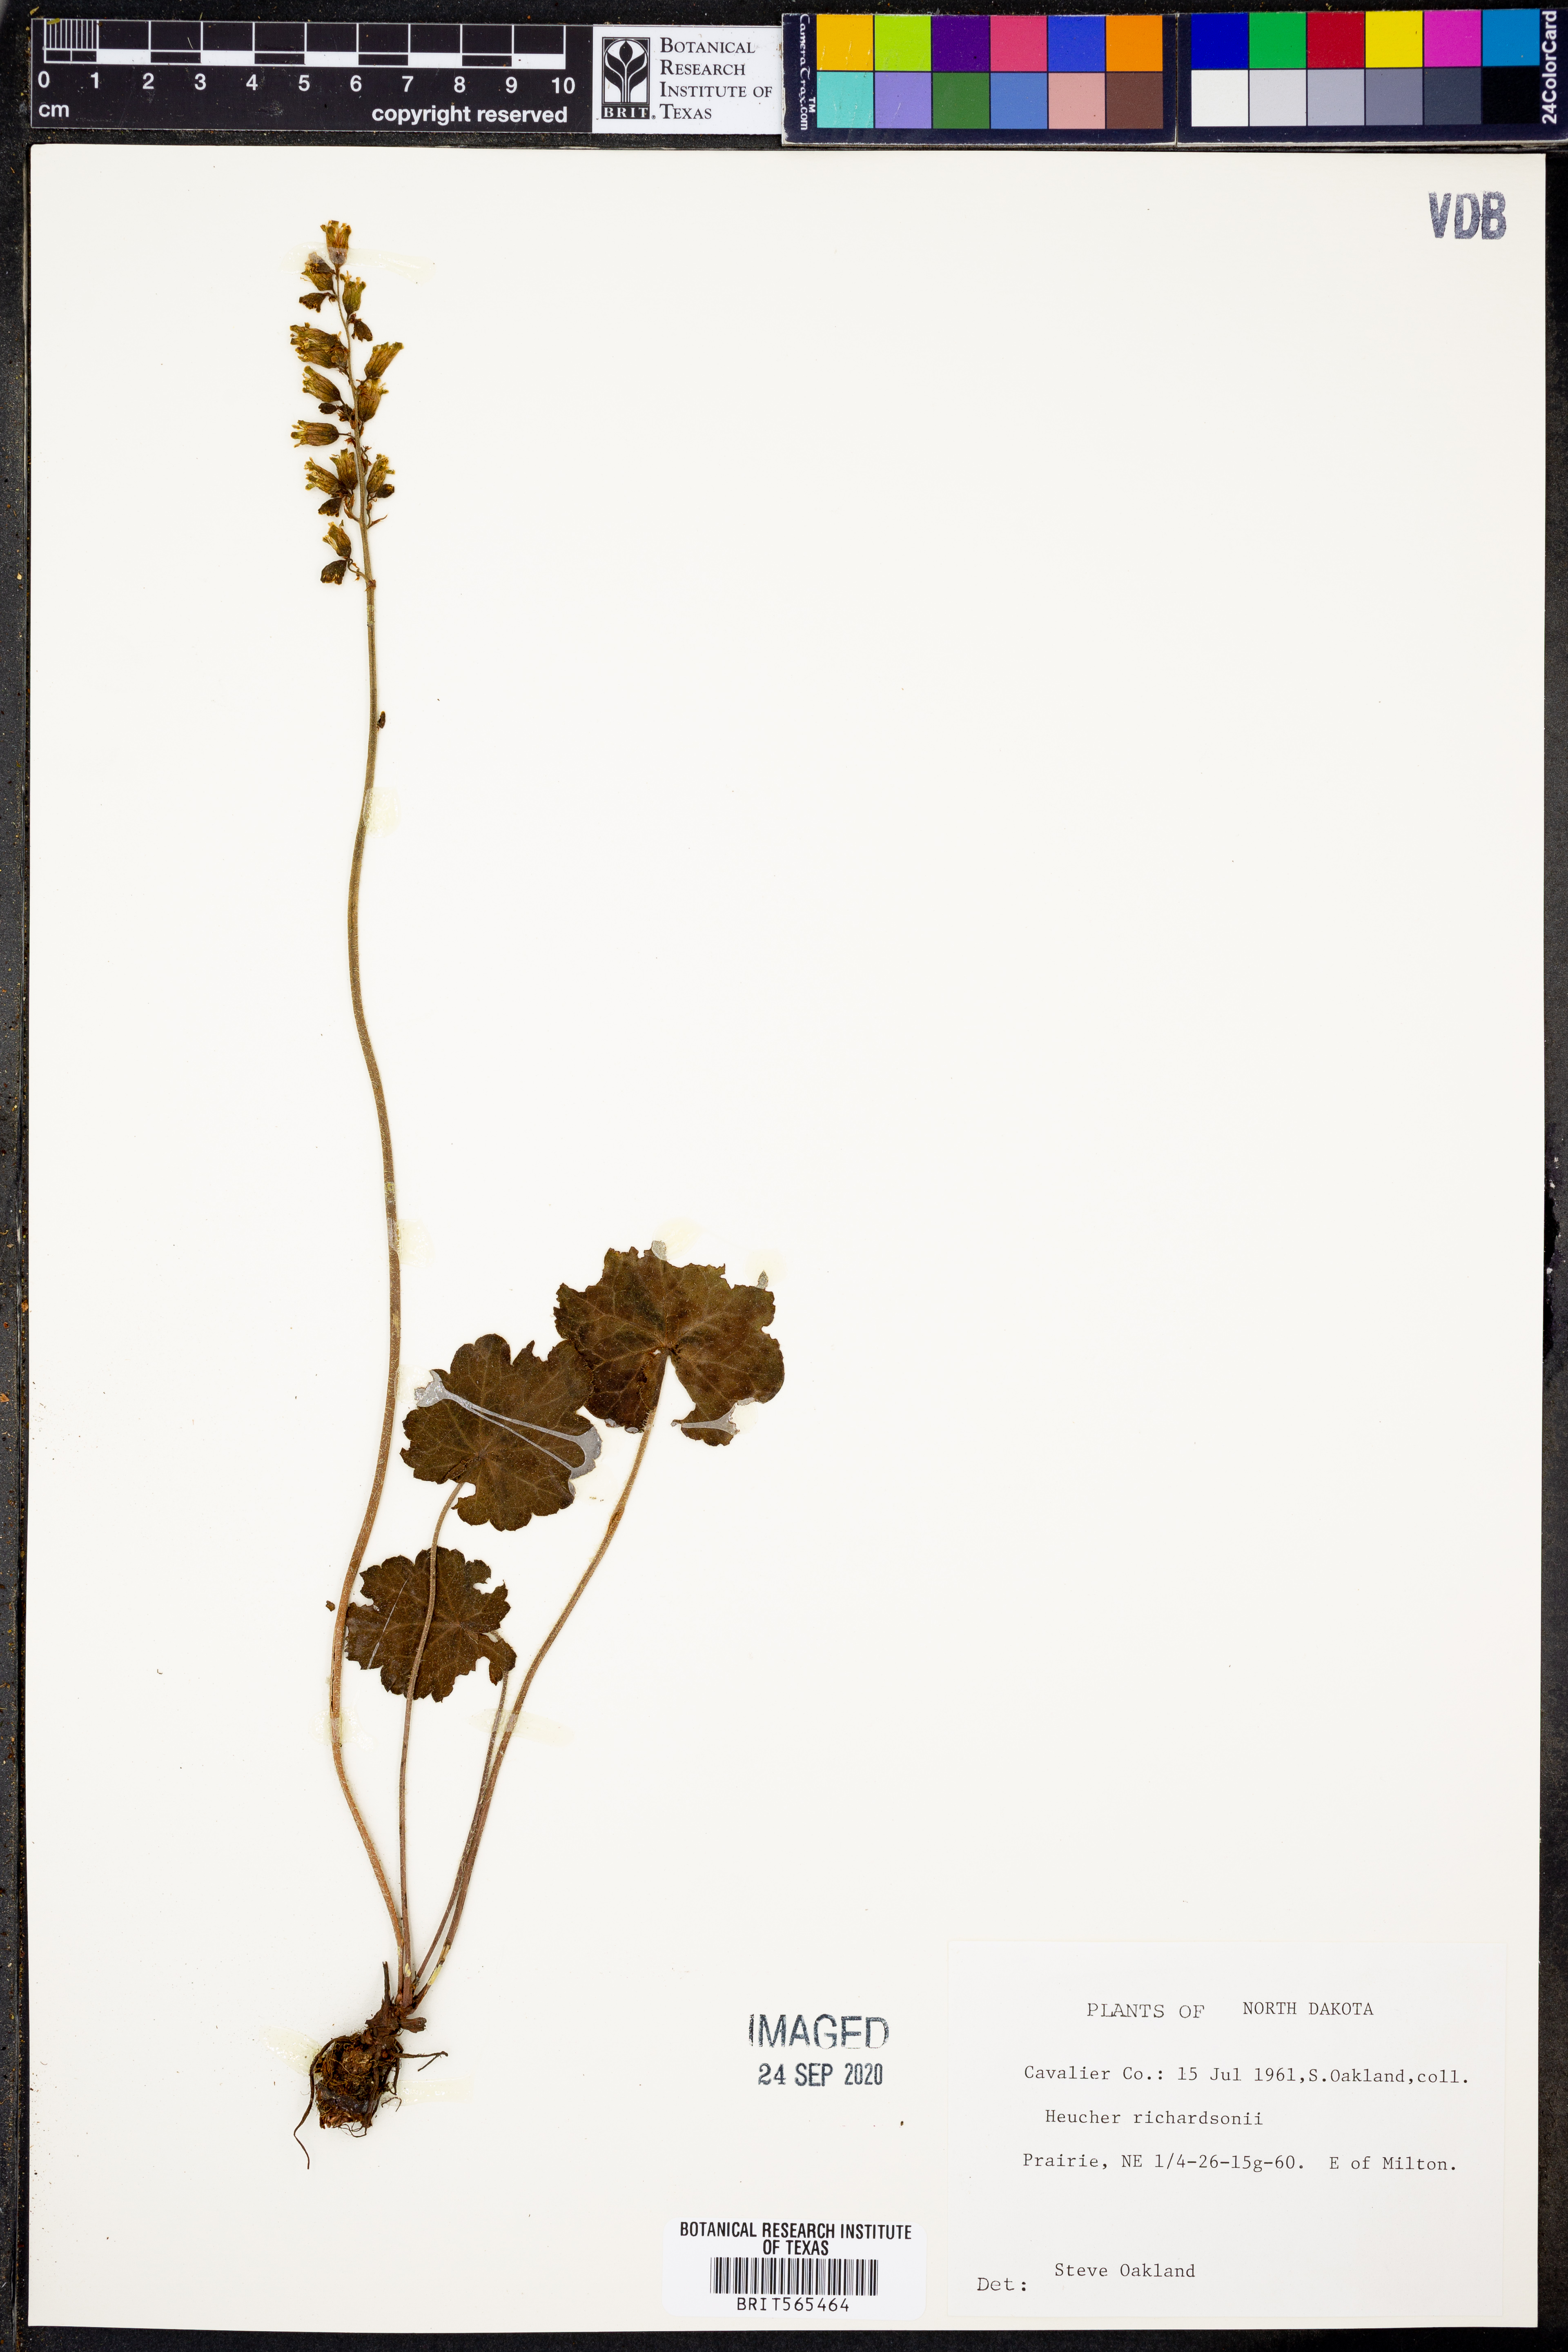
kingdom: Plantae
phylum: Tracheophyta
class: Magnoliopsida
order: Saxifragales
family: Saxifragaceae
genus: Heuchera
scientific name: Heuchera richardsonii
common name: Richardson's alumroot
